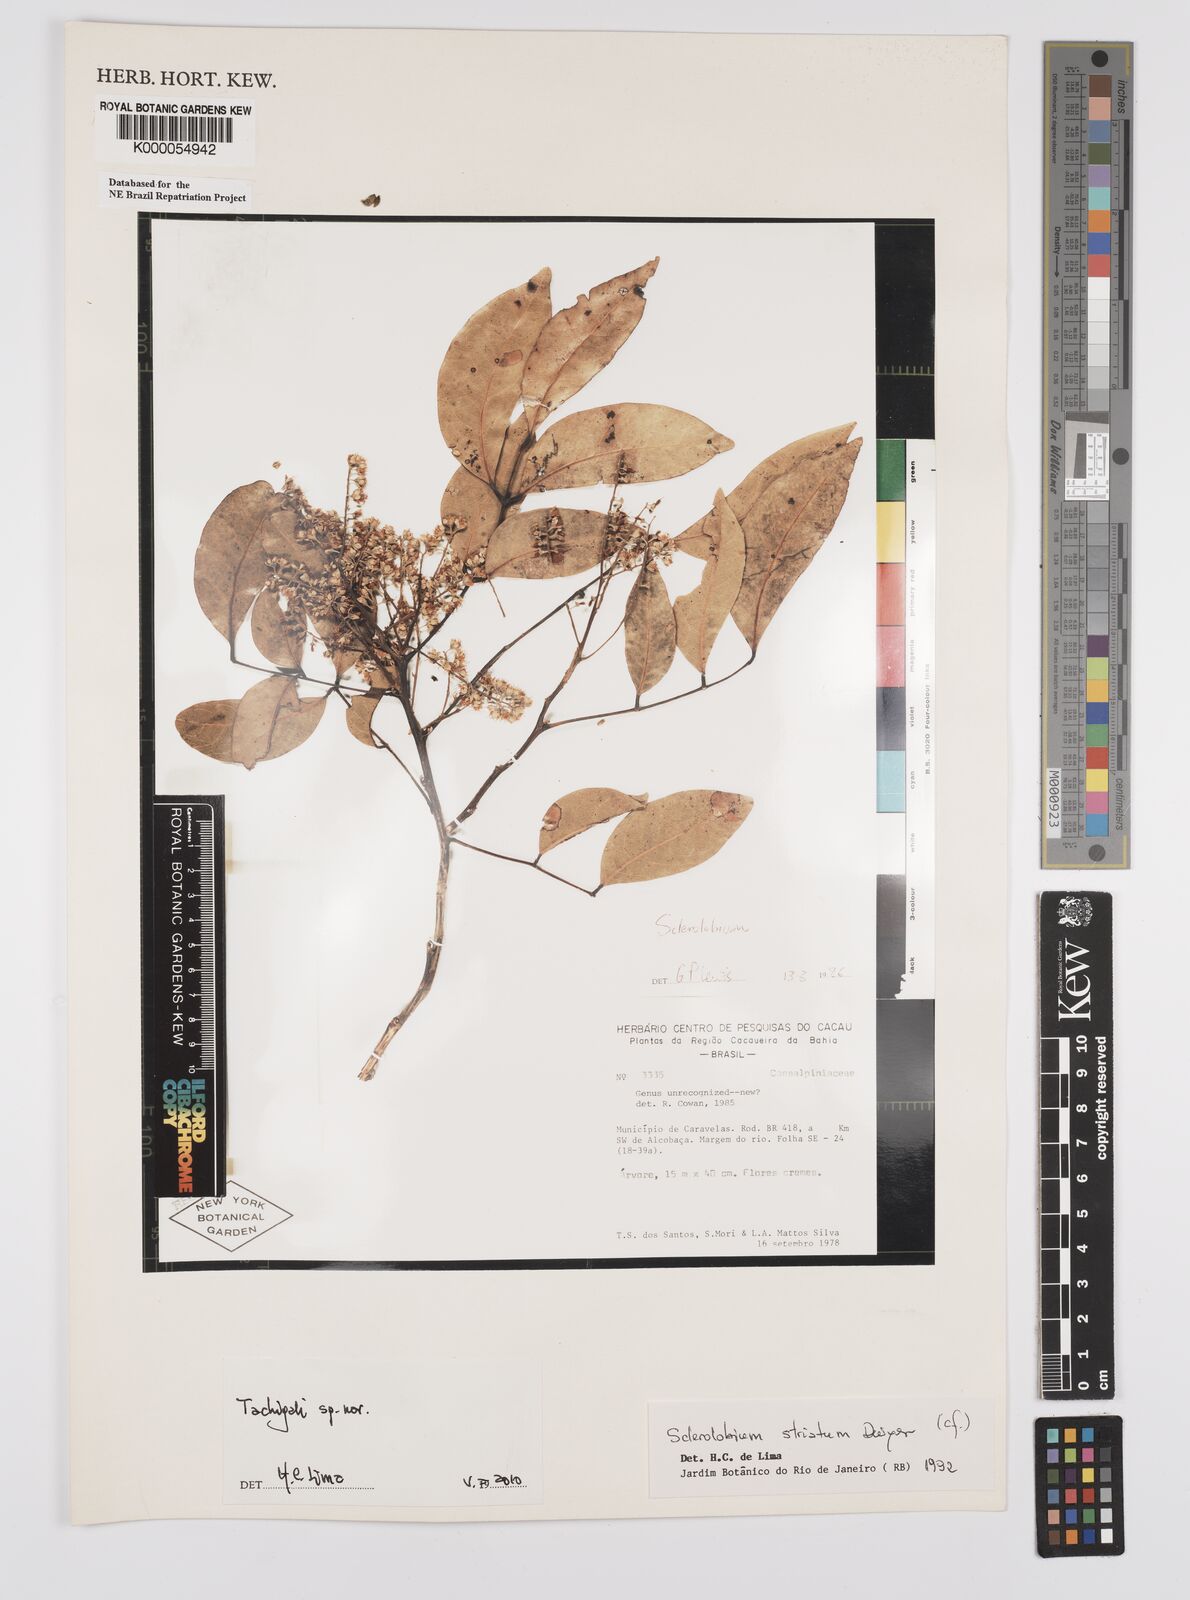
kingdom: Plantae
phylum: Tracheophyta
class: Magnoliopsida
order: Fabales
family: Fabaceae
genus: Tachigali
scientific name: Tachigali pilgeriana
